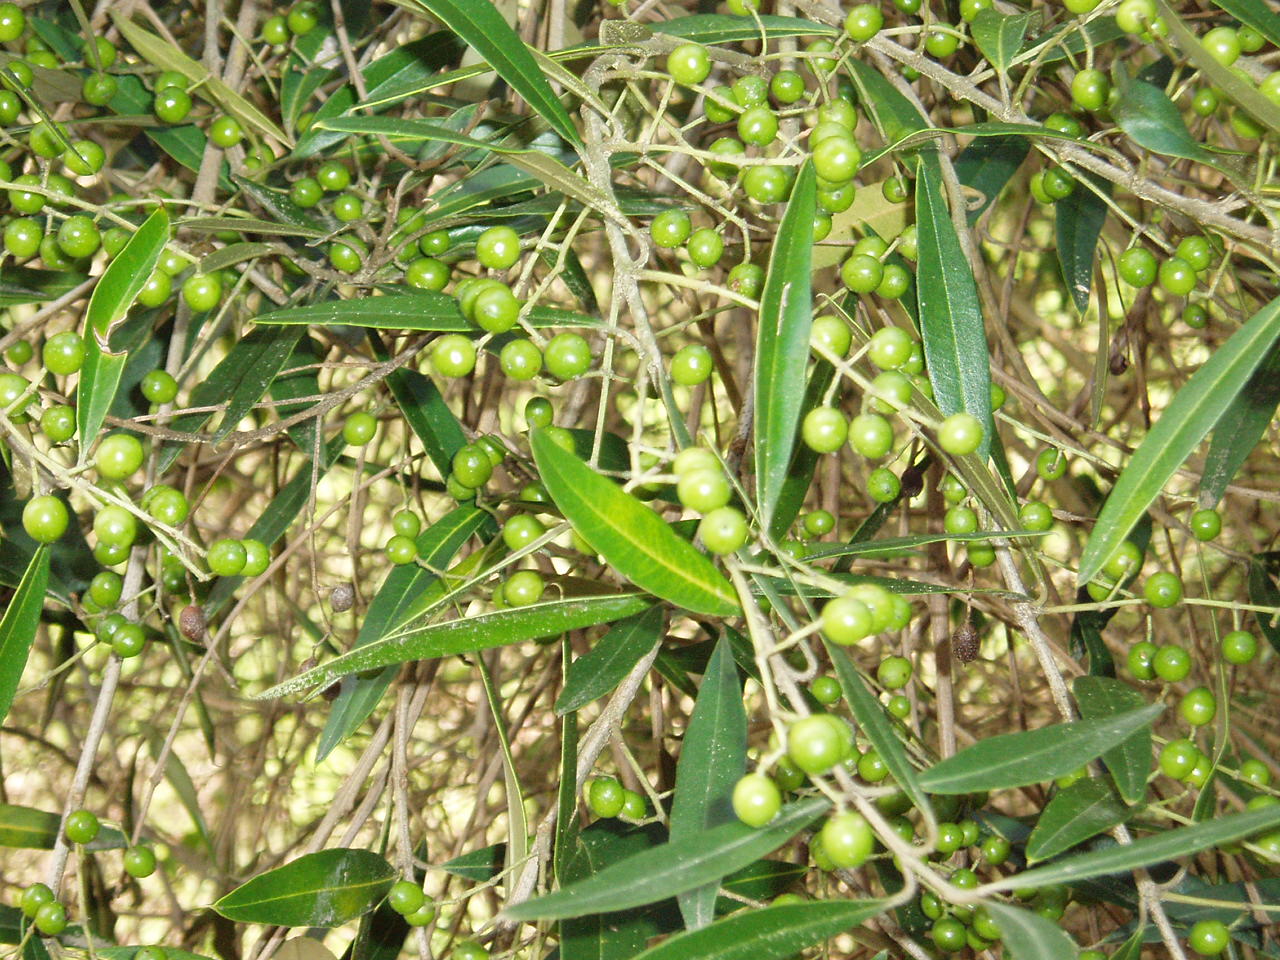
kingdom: Plantae
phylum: Tracheophyta
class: Magnoliopsida
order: Lamiales
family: Oleaceae
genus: Olea
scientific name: Olea europaea
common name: Olive
